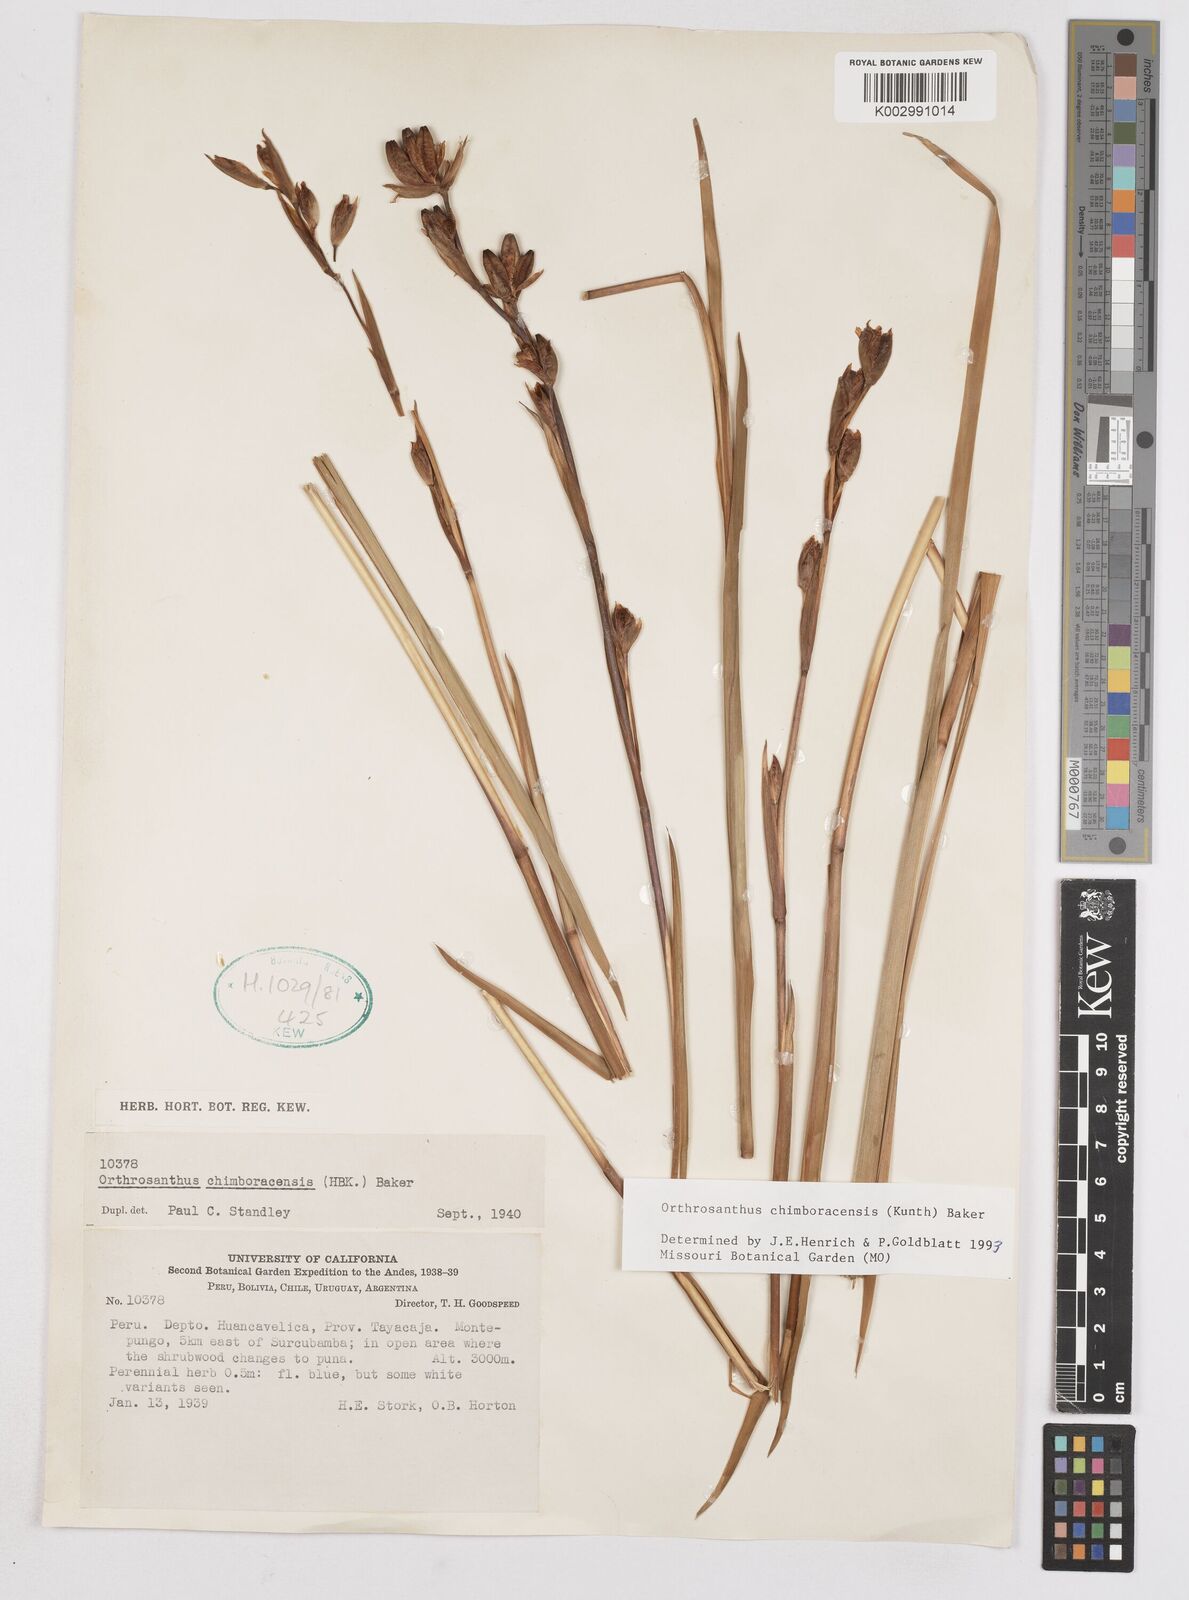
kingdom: Plantae
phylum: Tracheophyta
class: Liliopsida
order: Asparagales
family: Iridaceae
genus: Orthrosanthus
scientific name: Orthrosanthus chimboracensis
